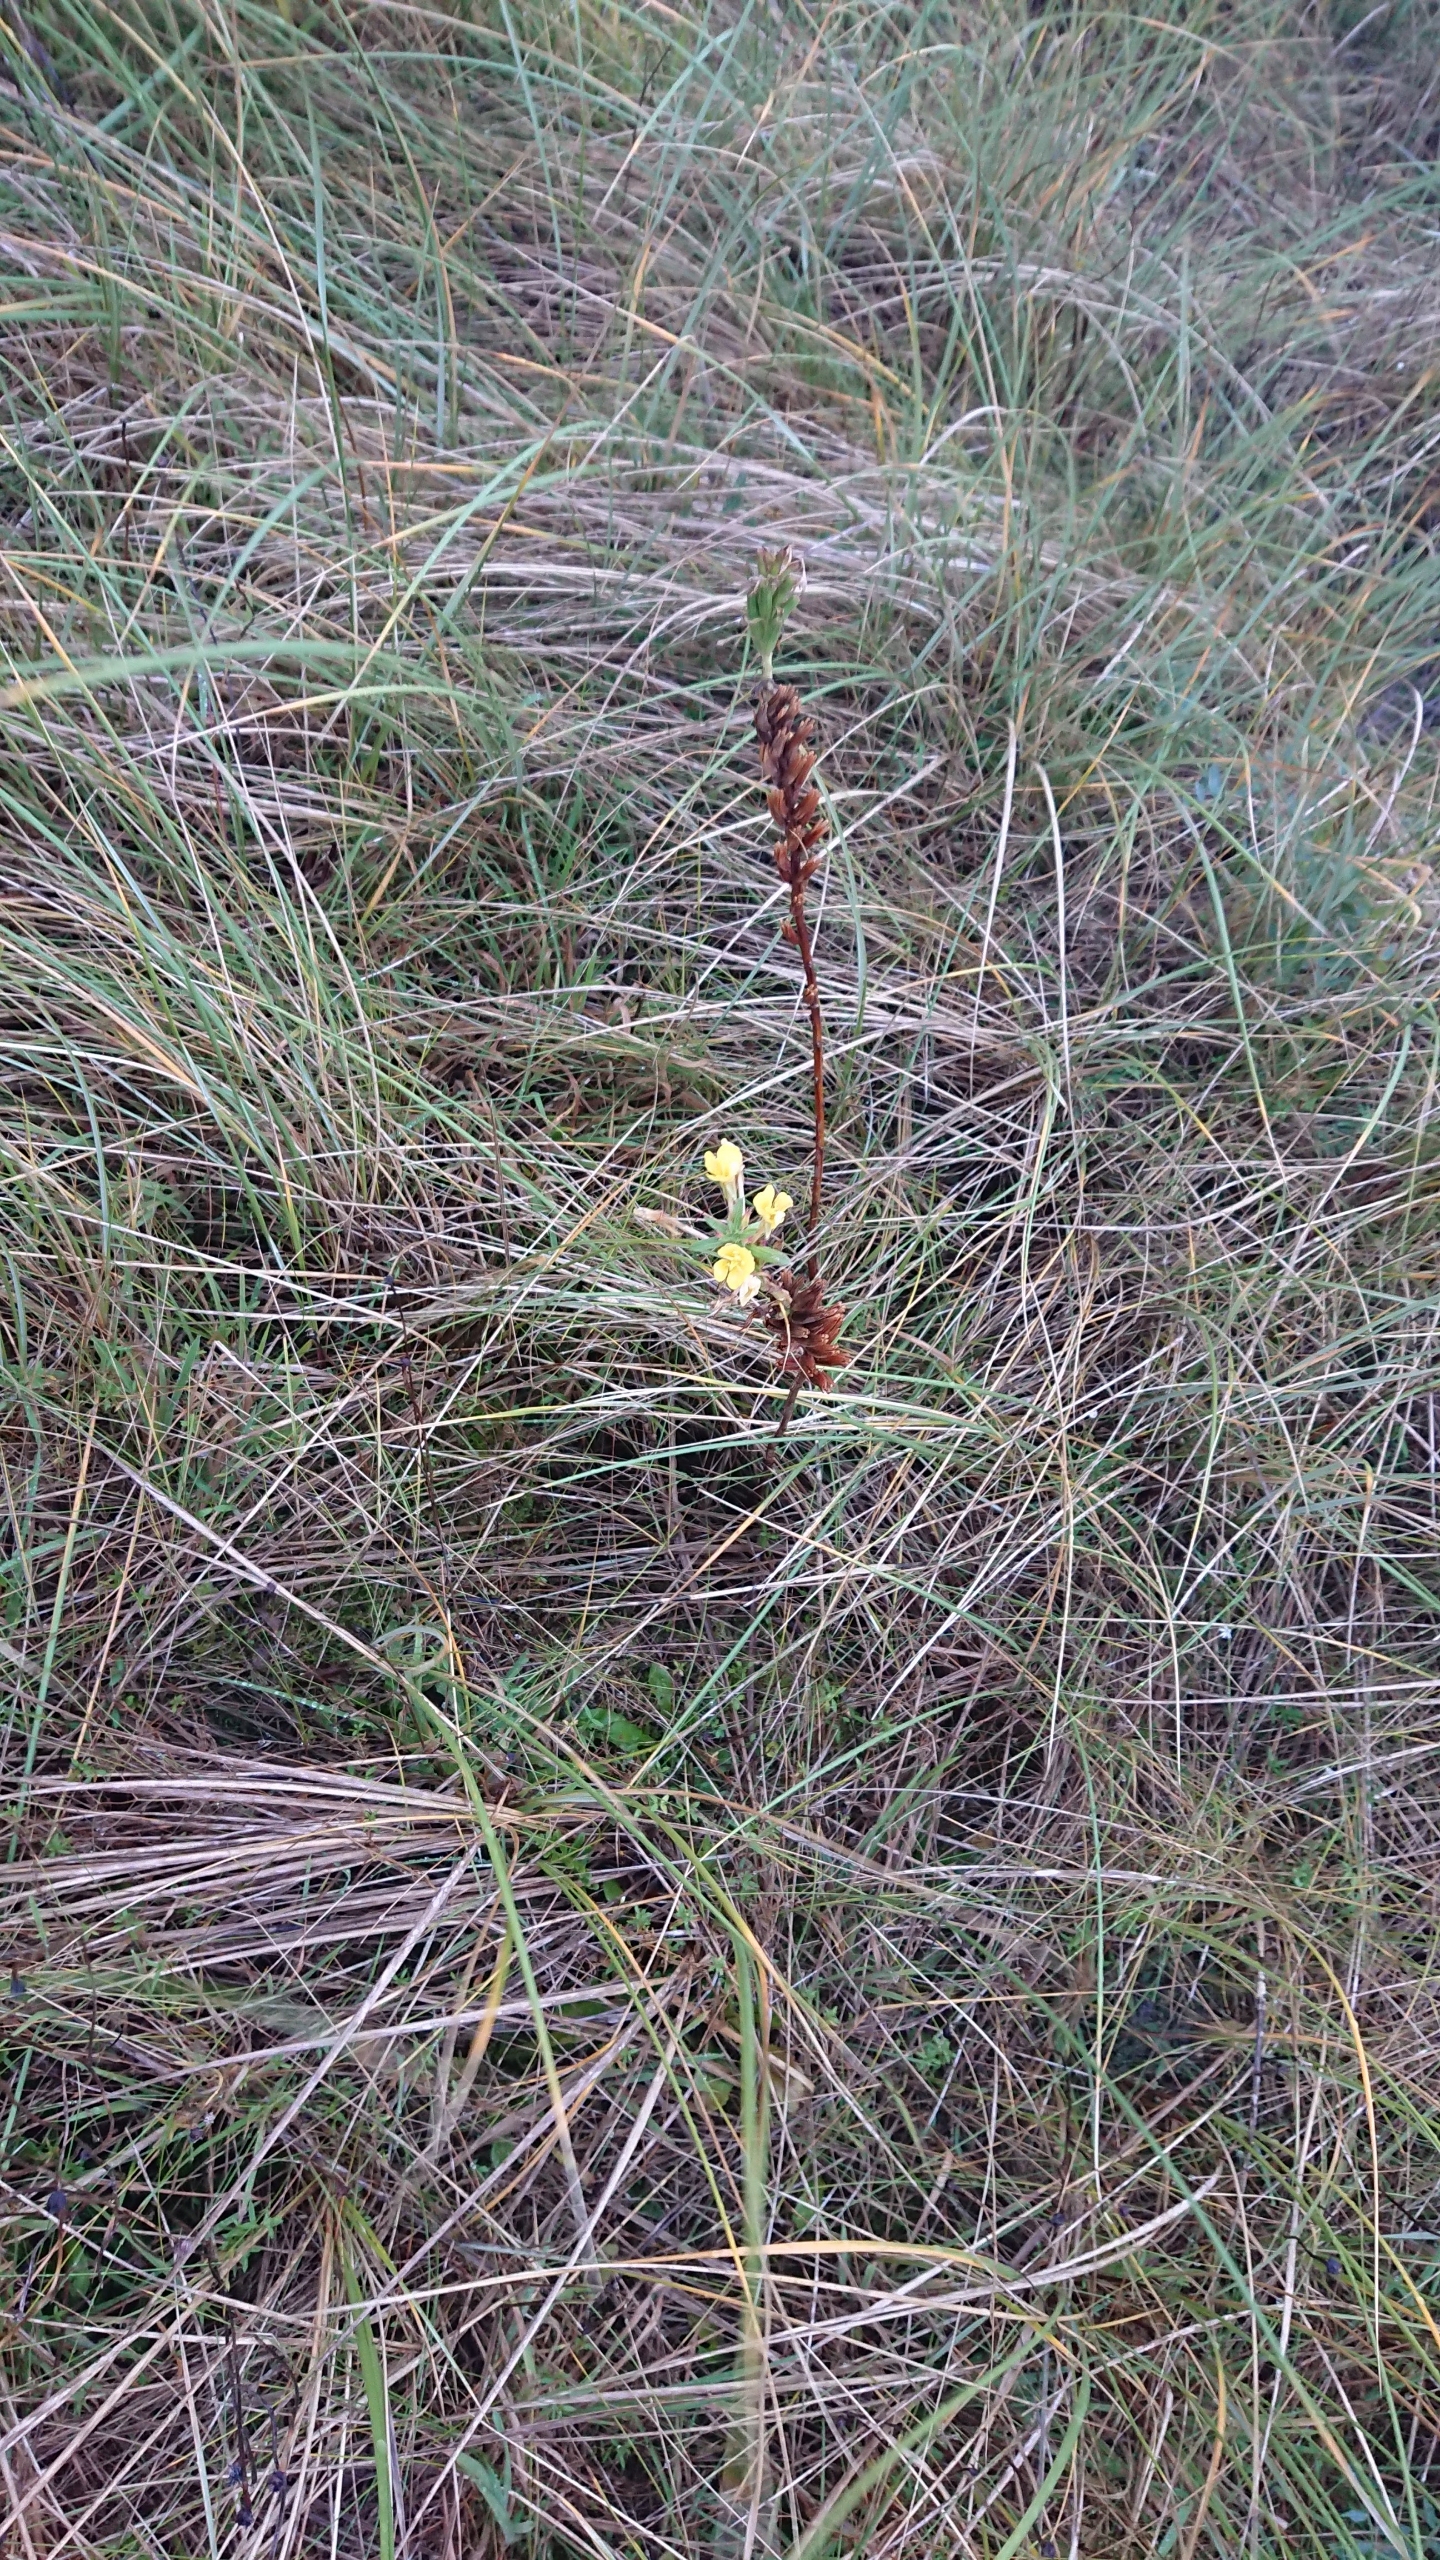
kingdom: Plantae
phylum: Tracheophyta
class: Magnoliopsida
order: Myrtales
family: Onagraceae
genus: Oenothera
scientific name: Oenothera ammophila
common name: Klit-natlys
